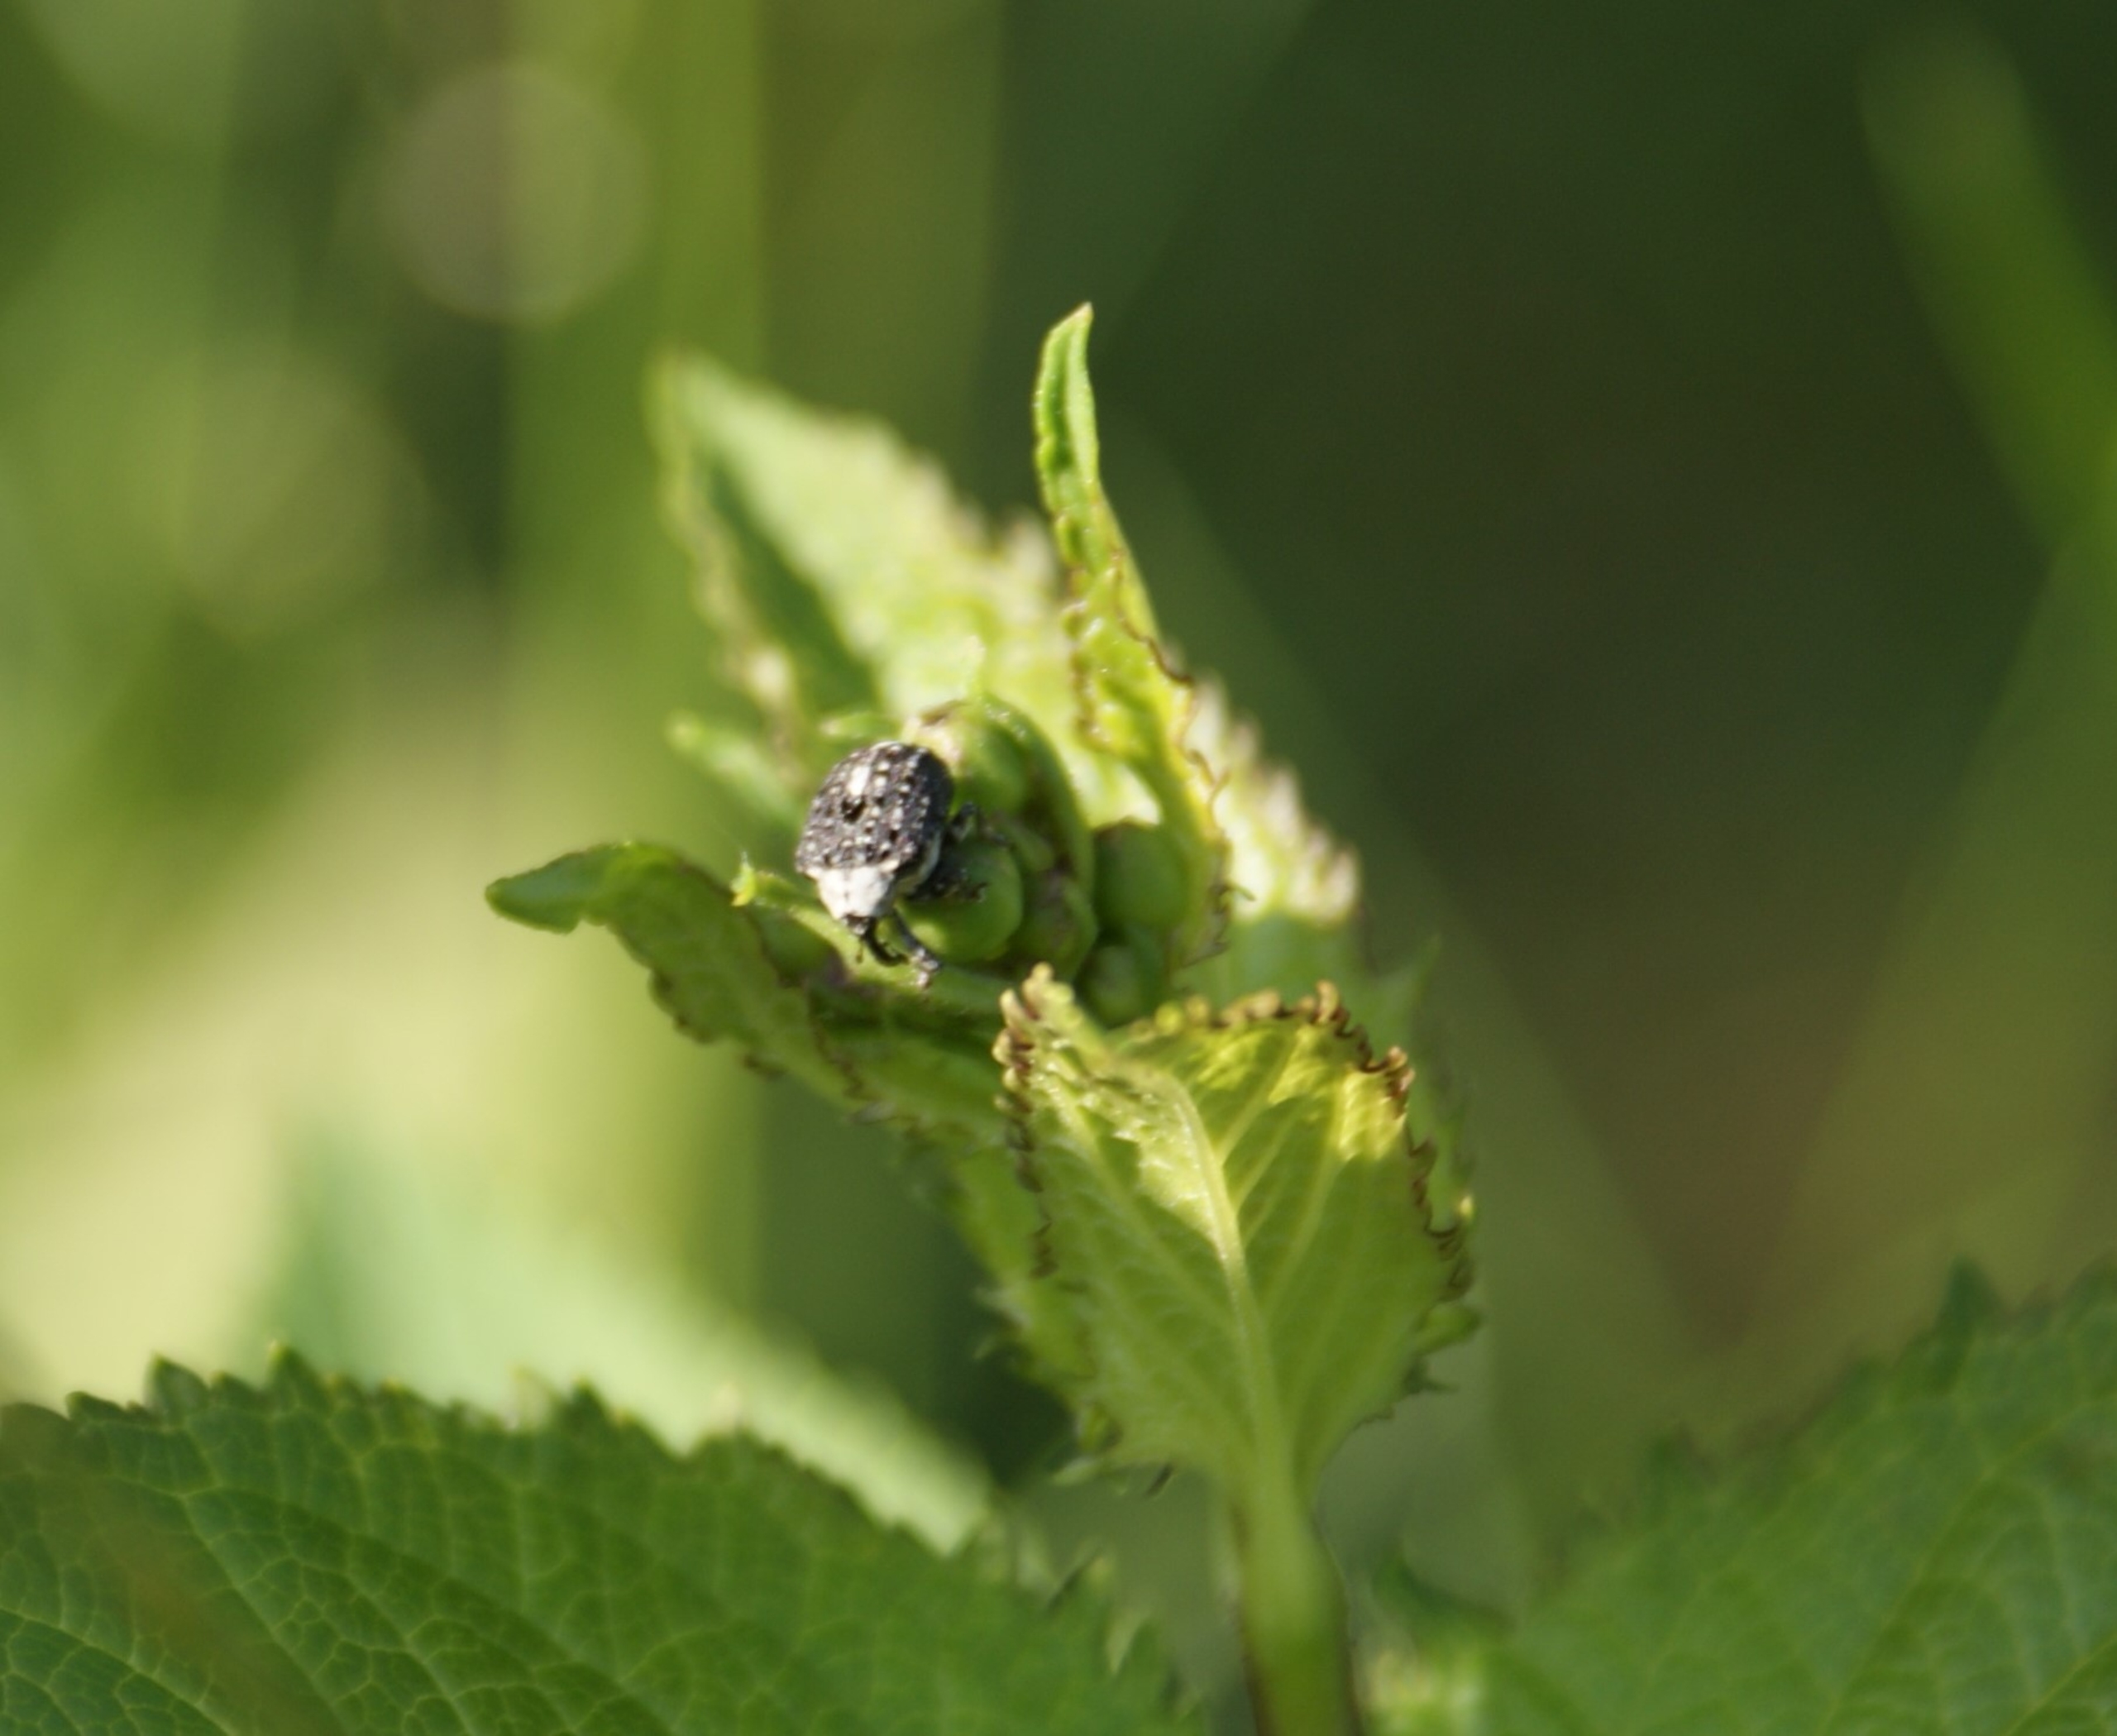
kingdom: Animalia
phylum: Arthropoda
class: Insecta
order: Coleoptera
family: Curculionidae
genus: Cionus
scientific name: Cionus scrophulariae
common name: Brunrodsnudebille
